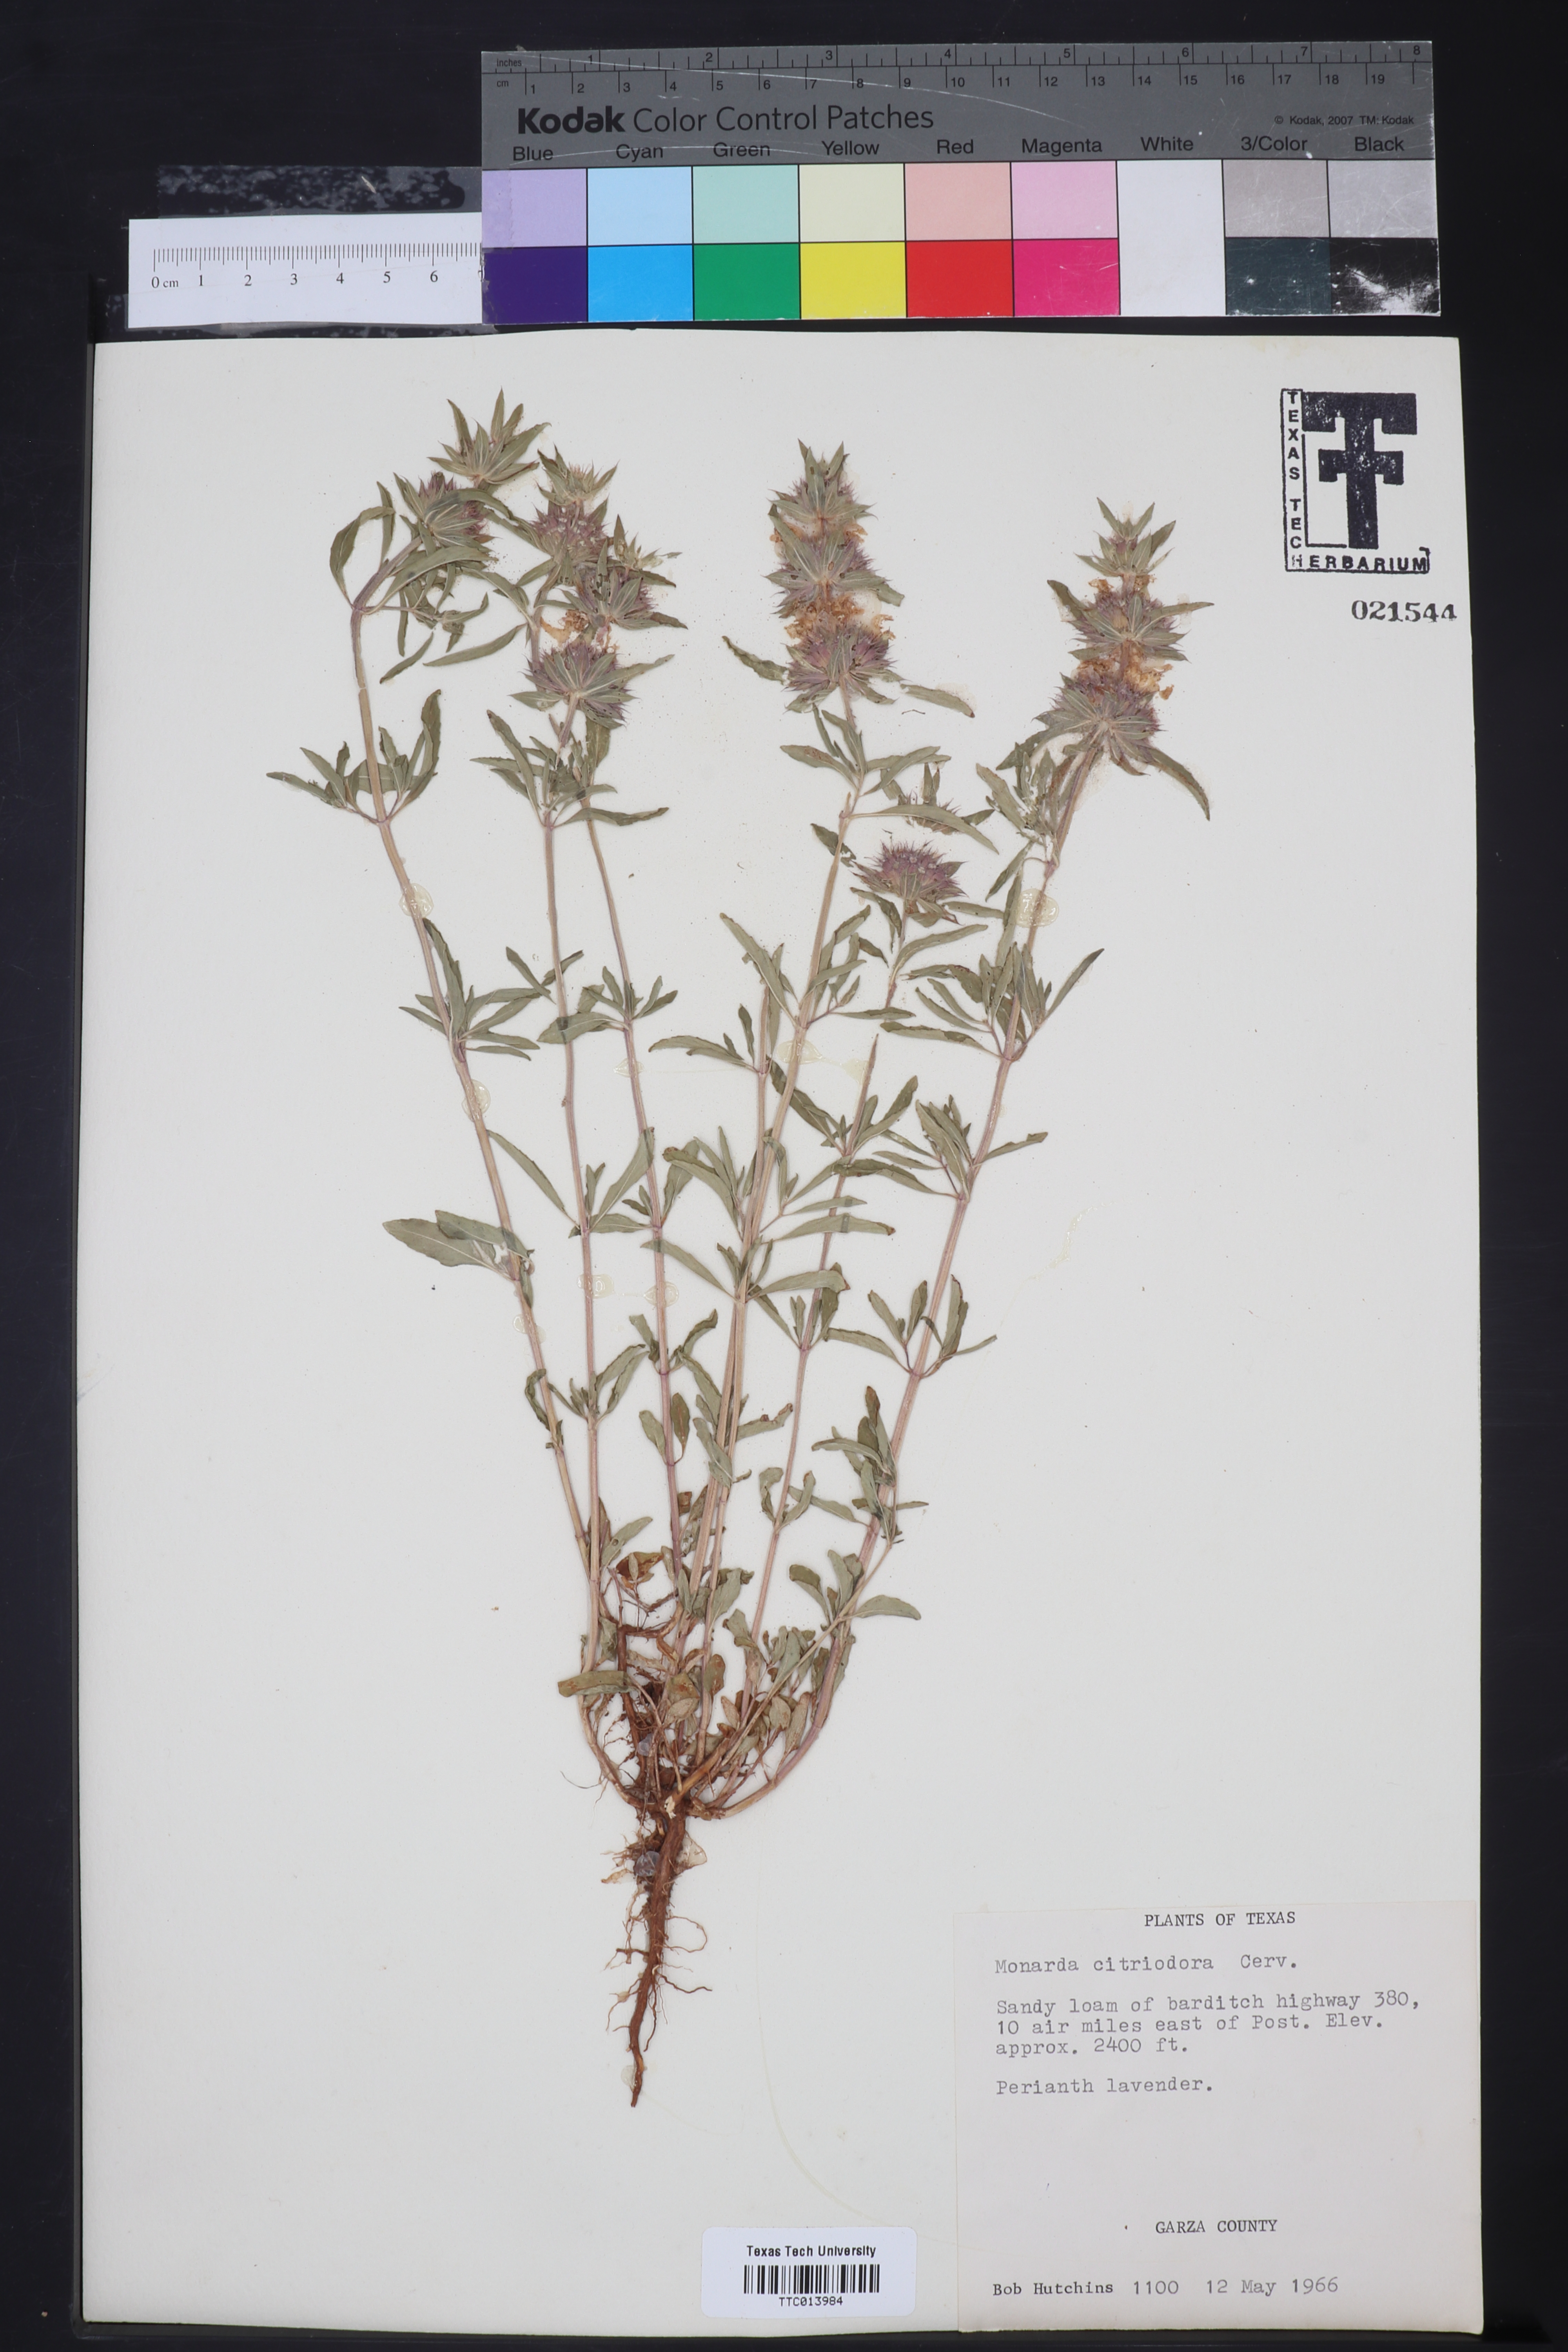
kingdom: Plantae
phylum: Tracheophyta
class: Magnoliopsida
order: Lamiales
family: Lamiaceae
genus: Monarda
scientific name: Monarda citriodora
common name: Lemon beebalm
